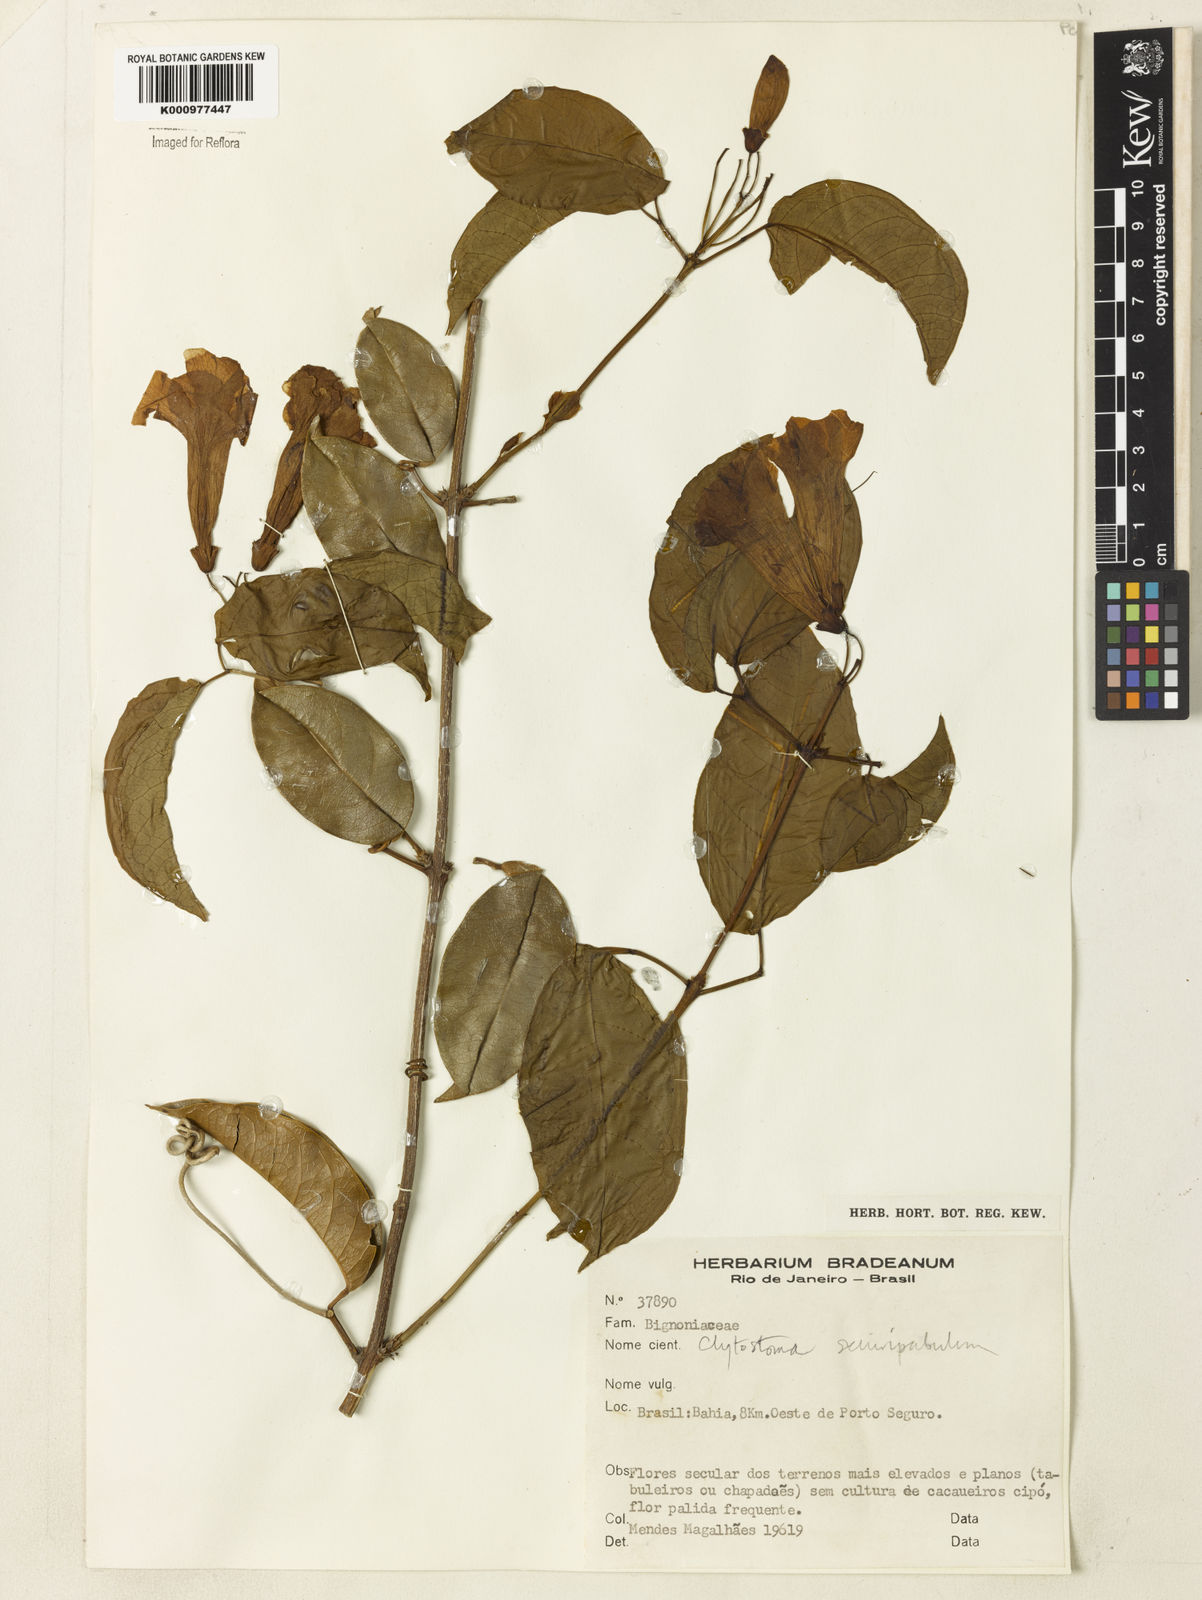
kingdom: Plantae
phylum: Tracheophyta
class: Magnoliopsida
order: Lamiales
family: Bignoniaceae
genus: Bignonia
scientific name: Bignonia
